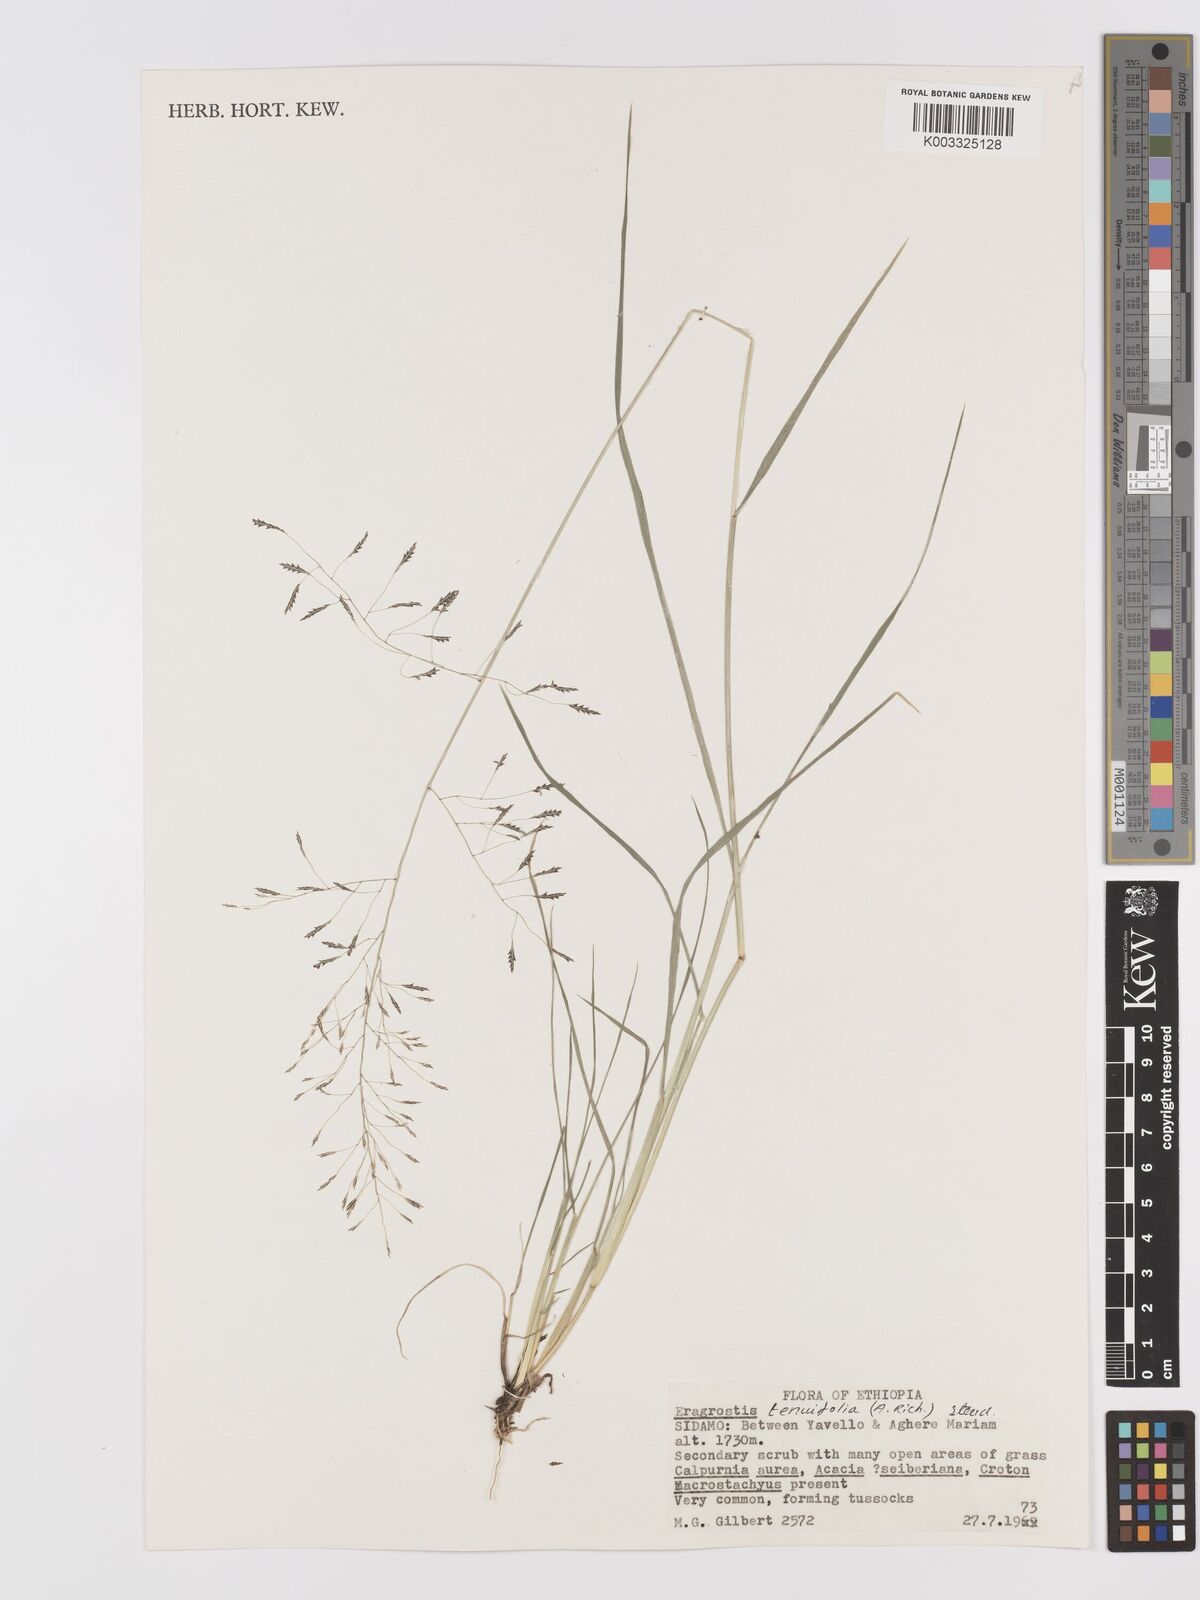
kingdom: Plantae
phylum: Tracheophyta
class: Liliopsida
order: Poales
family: Poaceae
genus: Eragrostis
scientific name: Eragrostis tenuifolia
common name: Elastic grass
